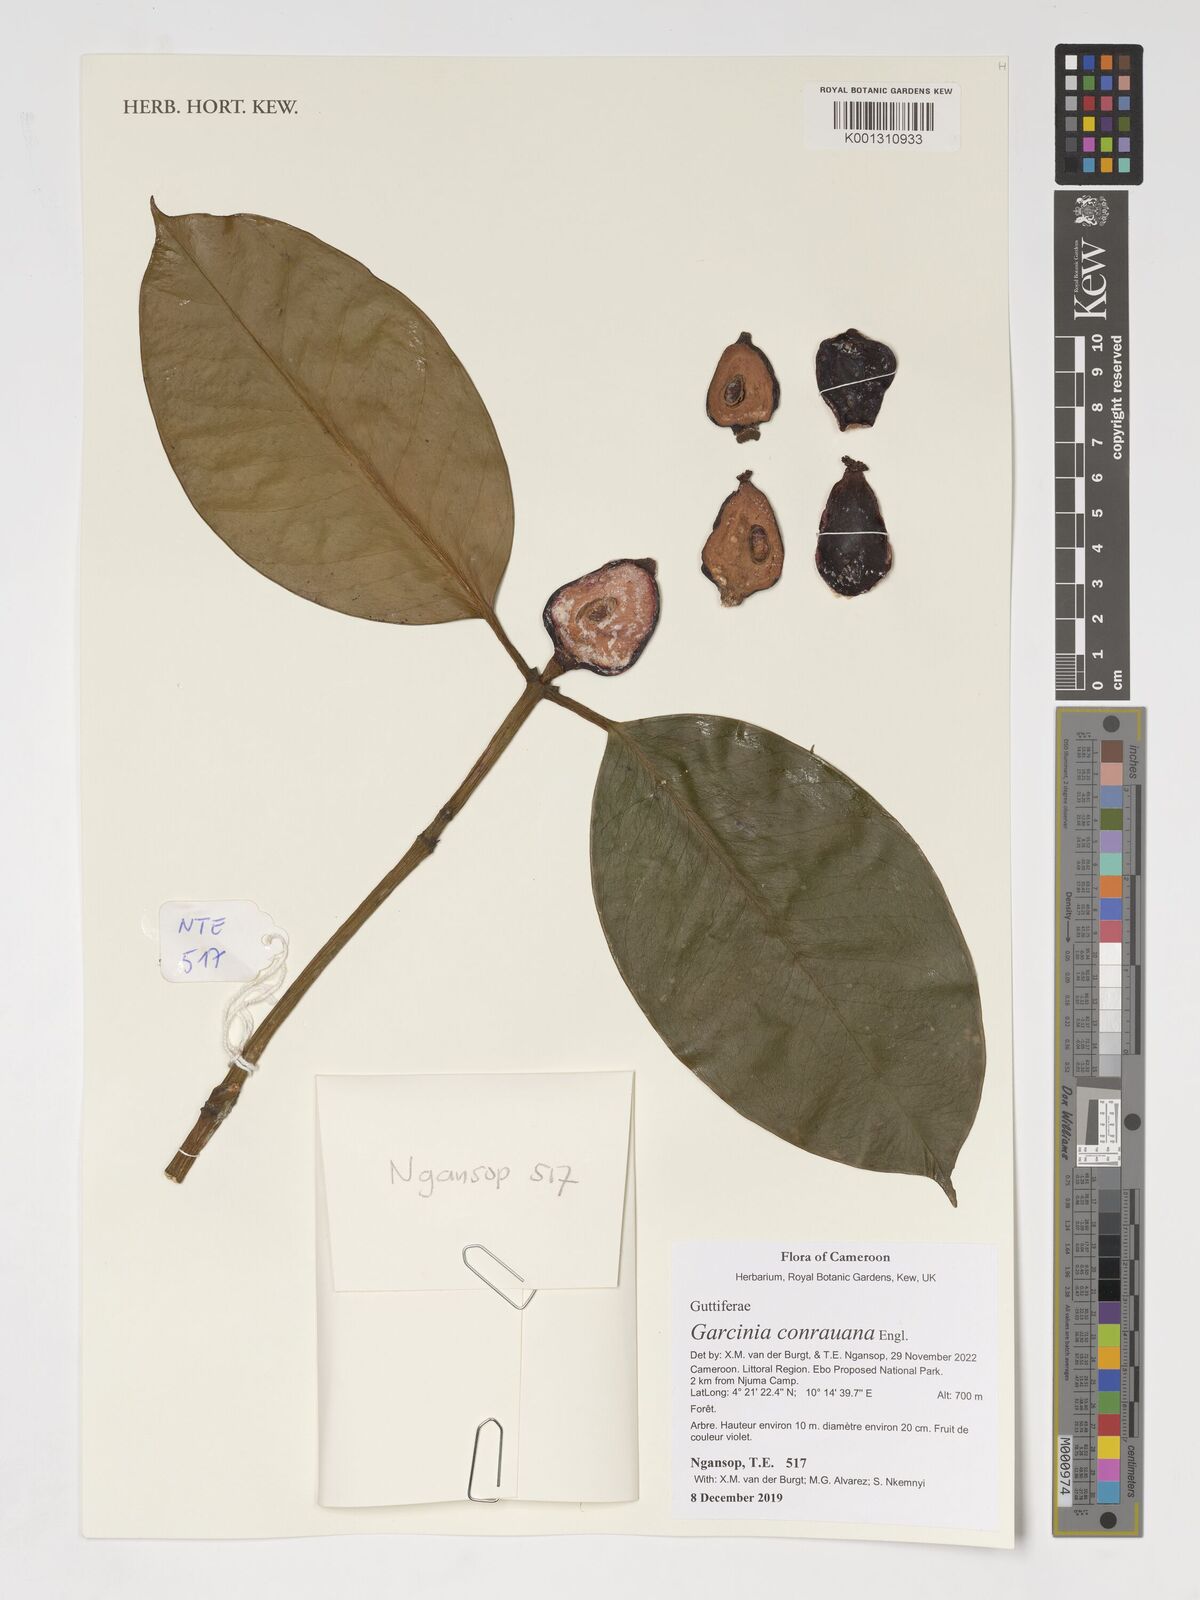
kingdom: Plantae
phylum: Tracheophyta
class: Magnoliopsida
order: Malpighiales
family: Clusiaceae
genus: Garcinia
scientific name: Garcinia conrauana
